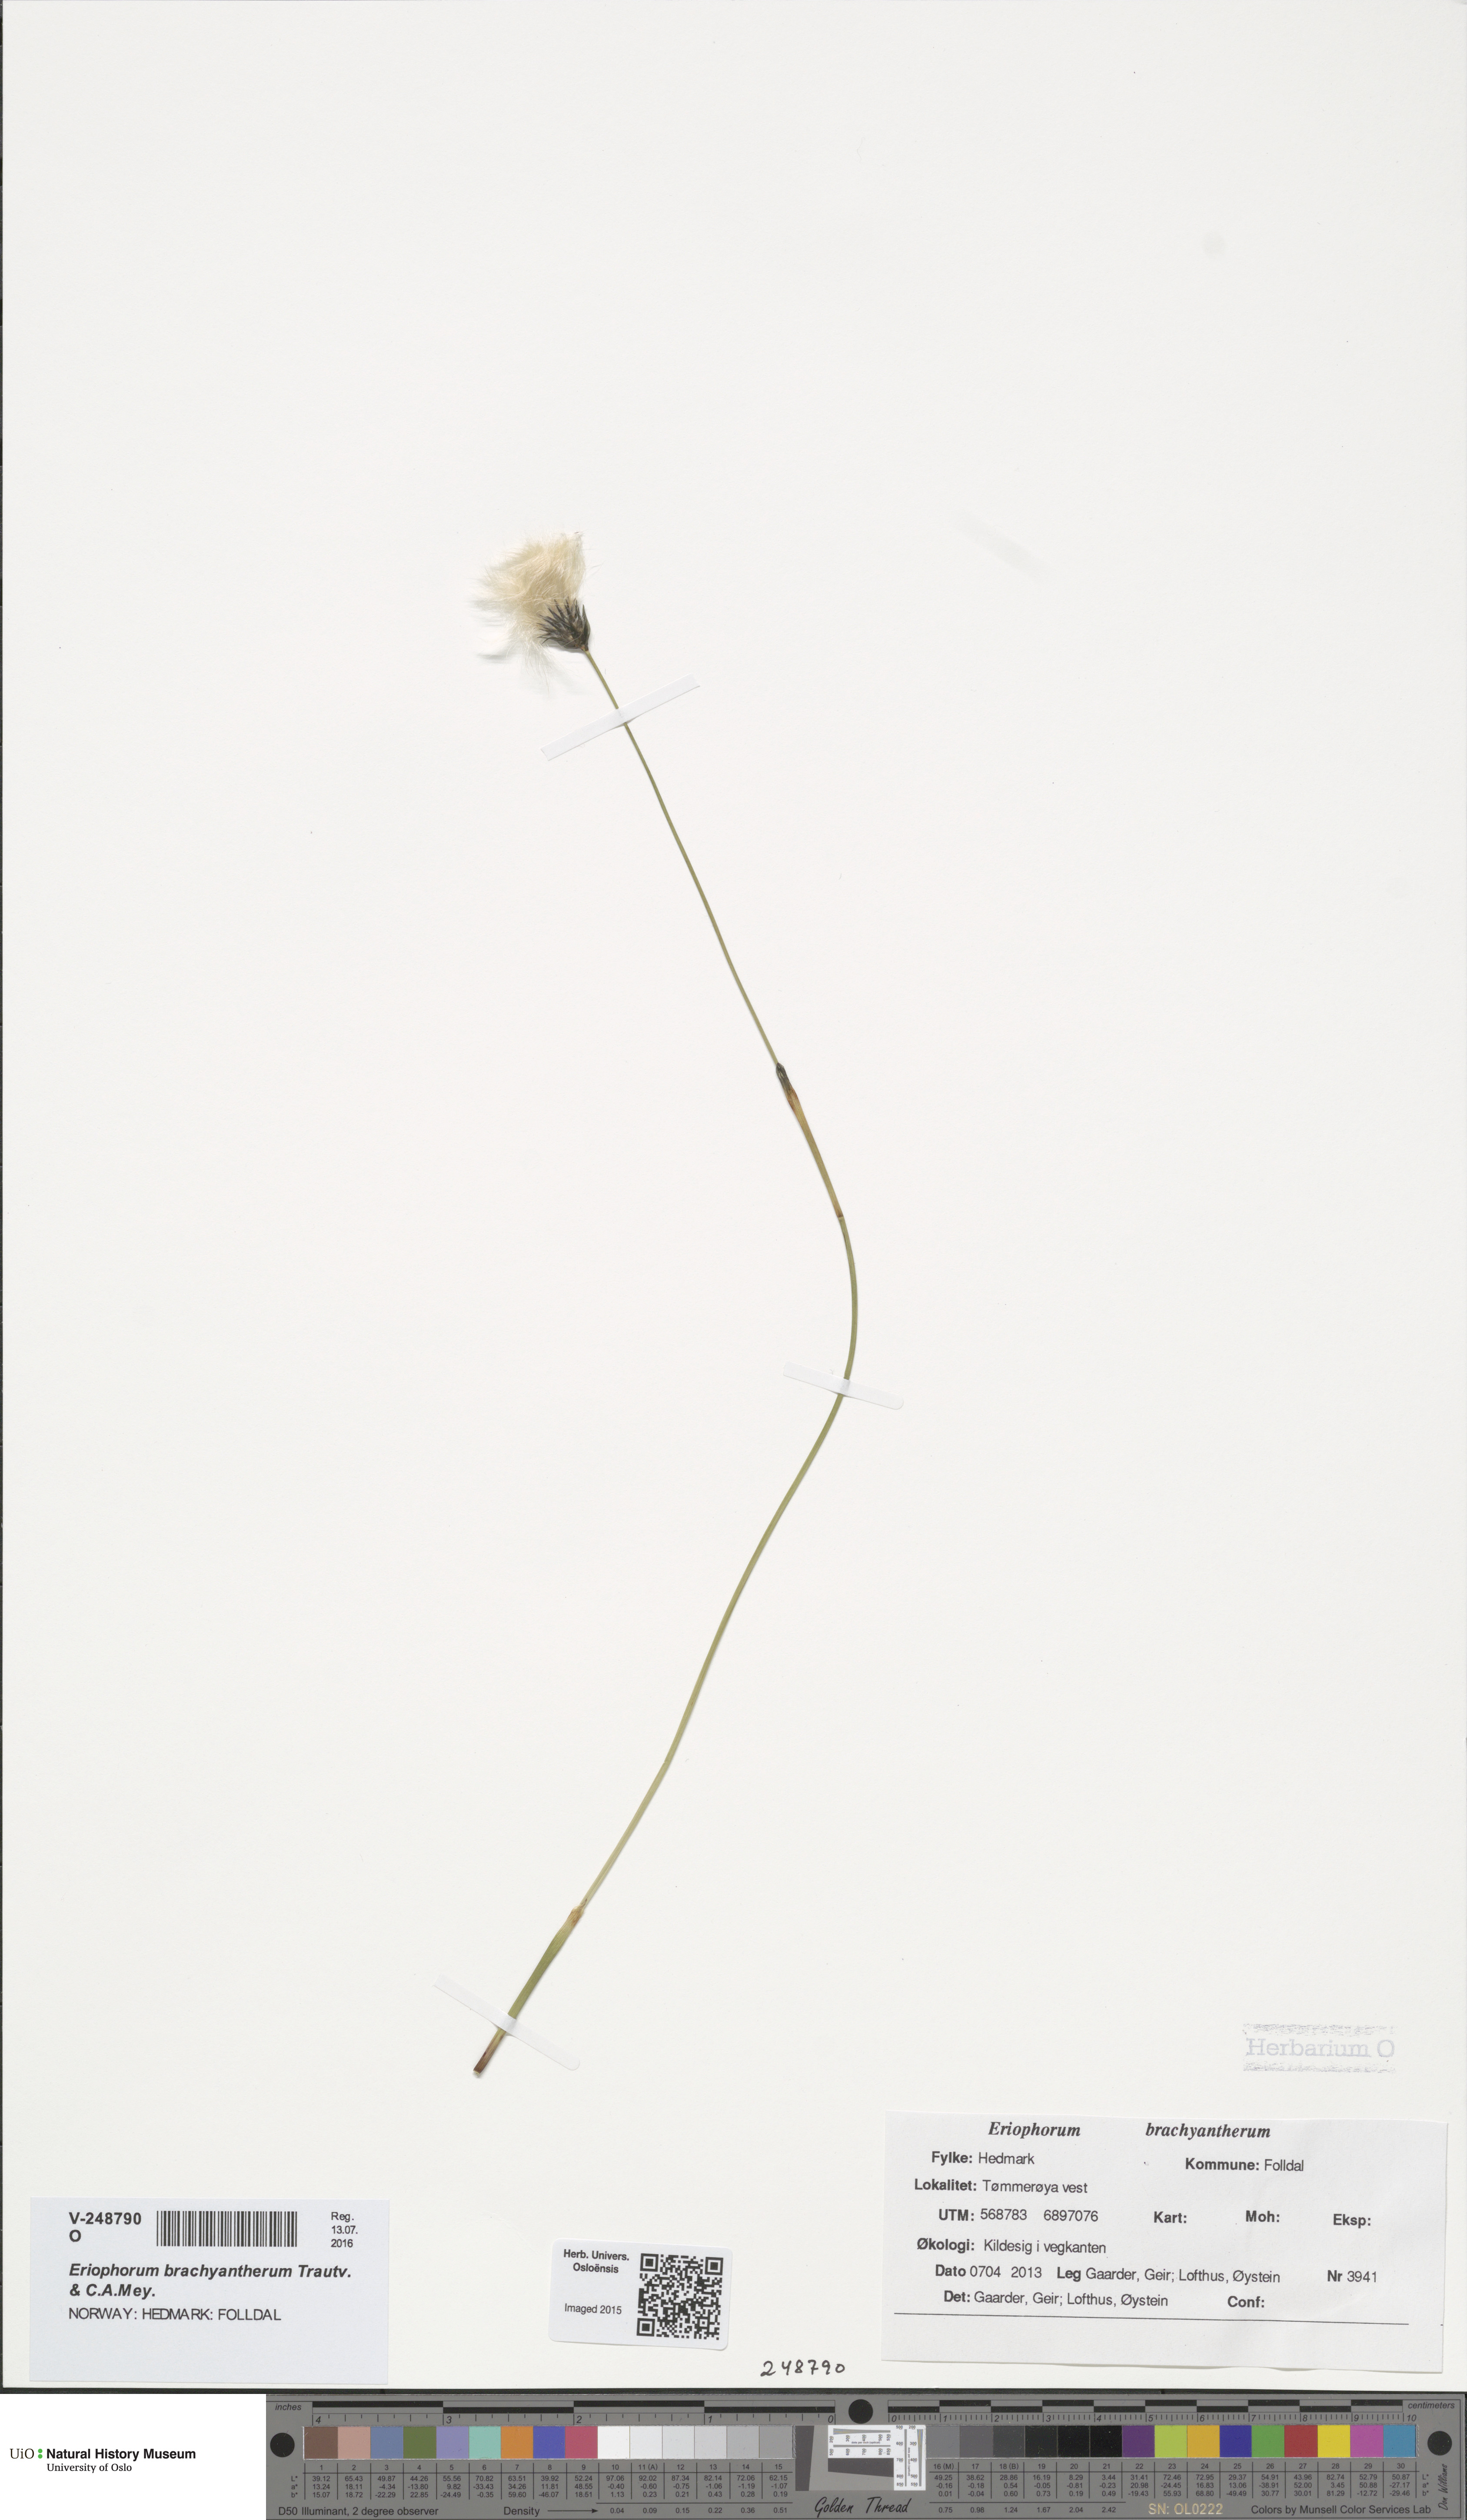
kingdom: Plantae
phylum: Tracheophyta
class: Liliopsida
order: Poales
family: Cyperaceae
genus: Eriophorum
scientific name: Eriophorum brachyantherum
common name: Closed-sheathed cottongrass
